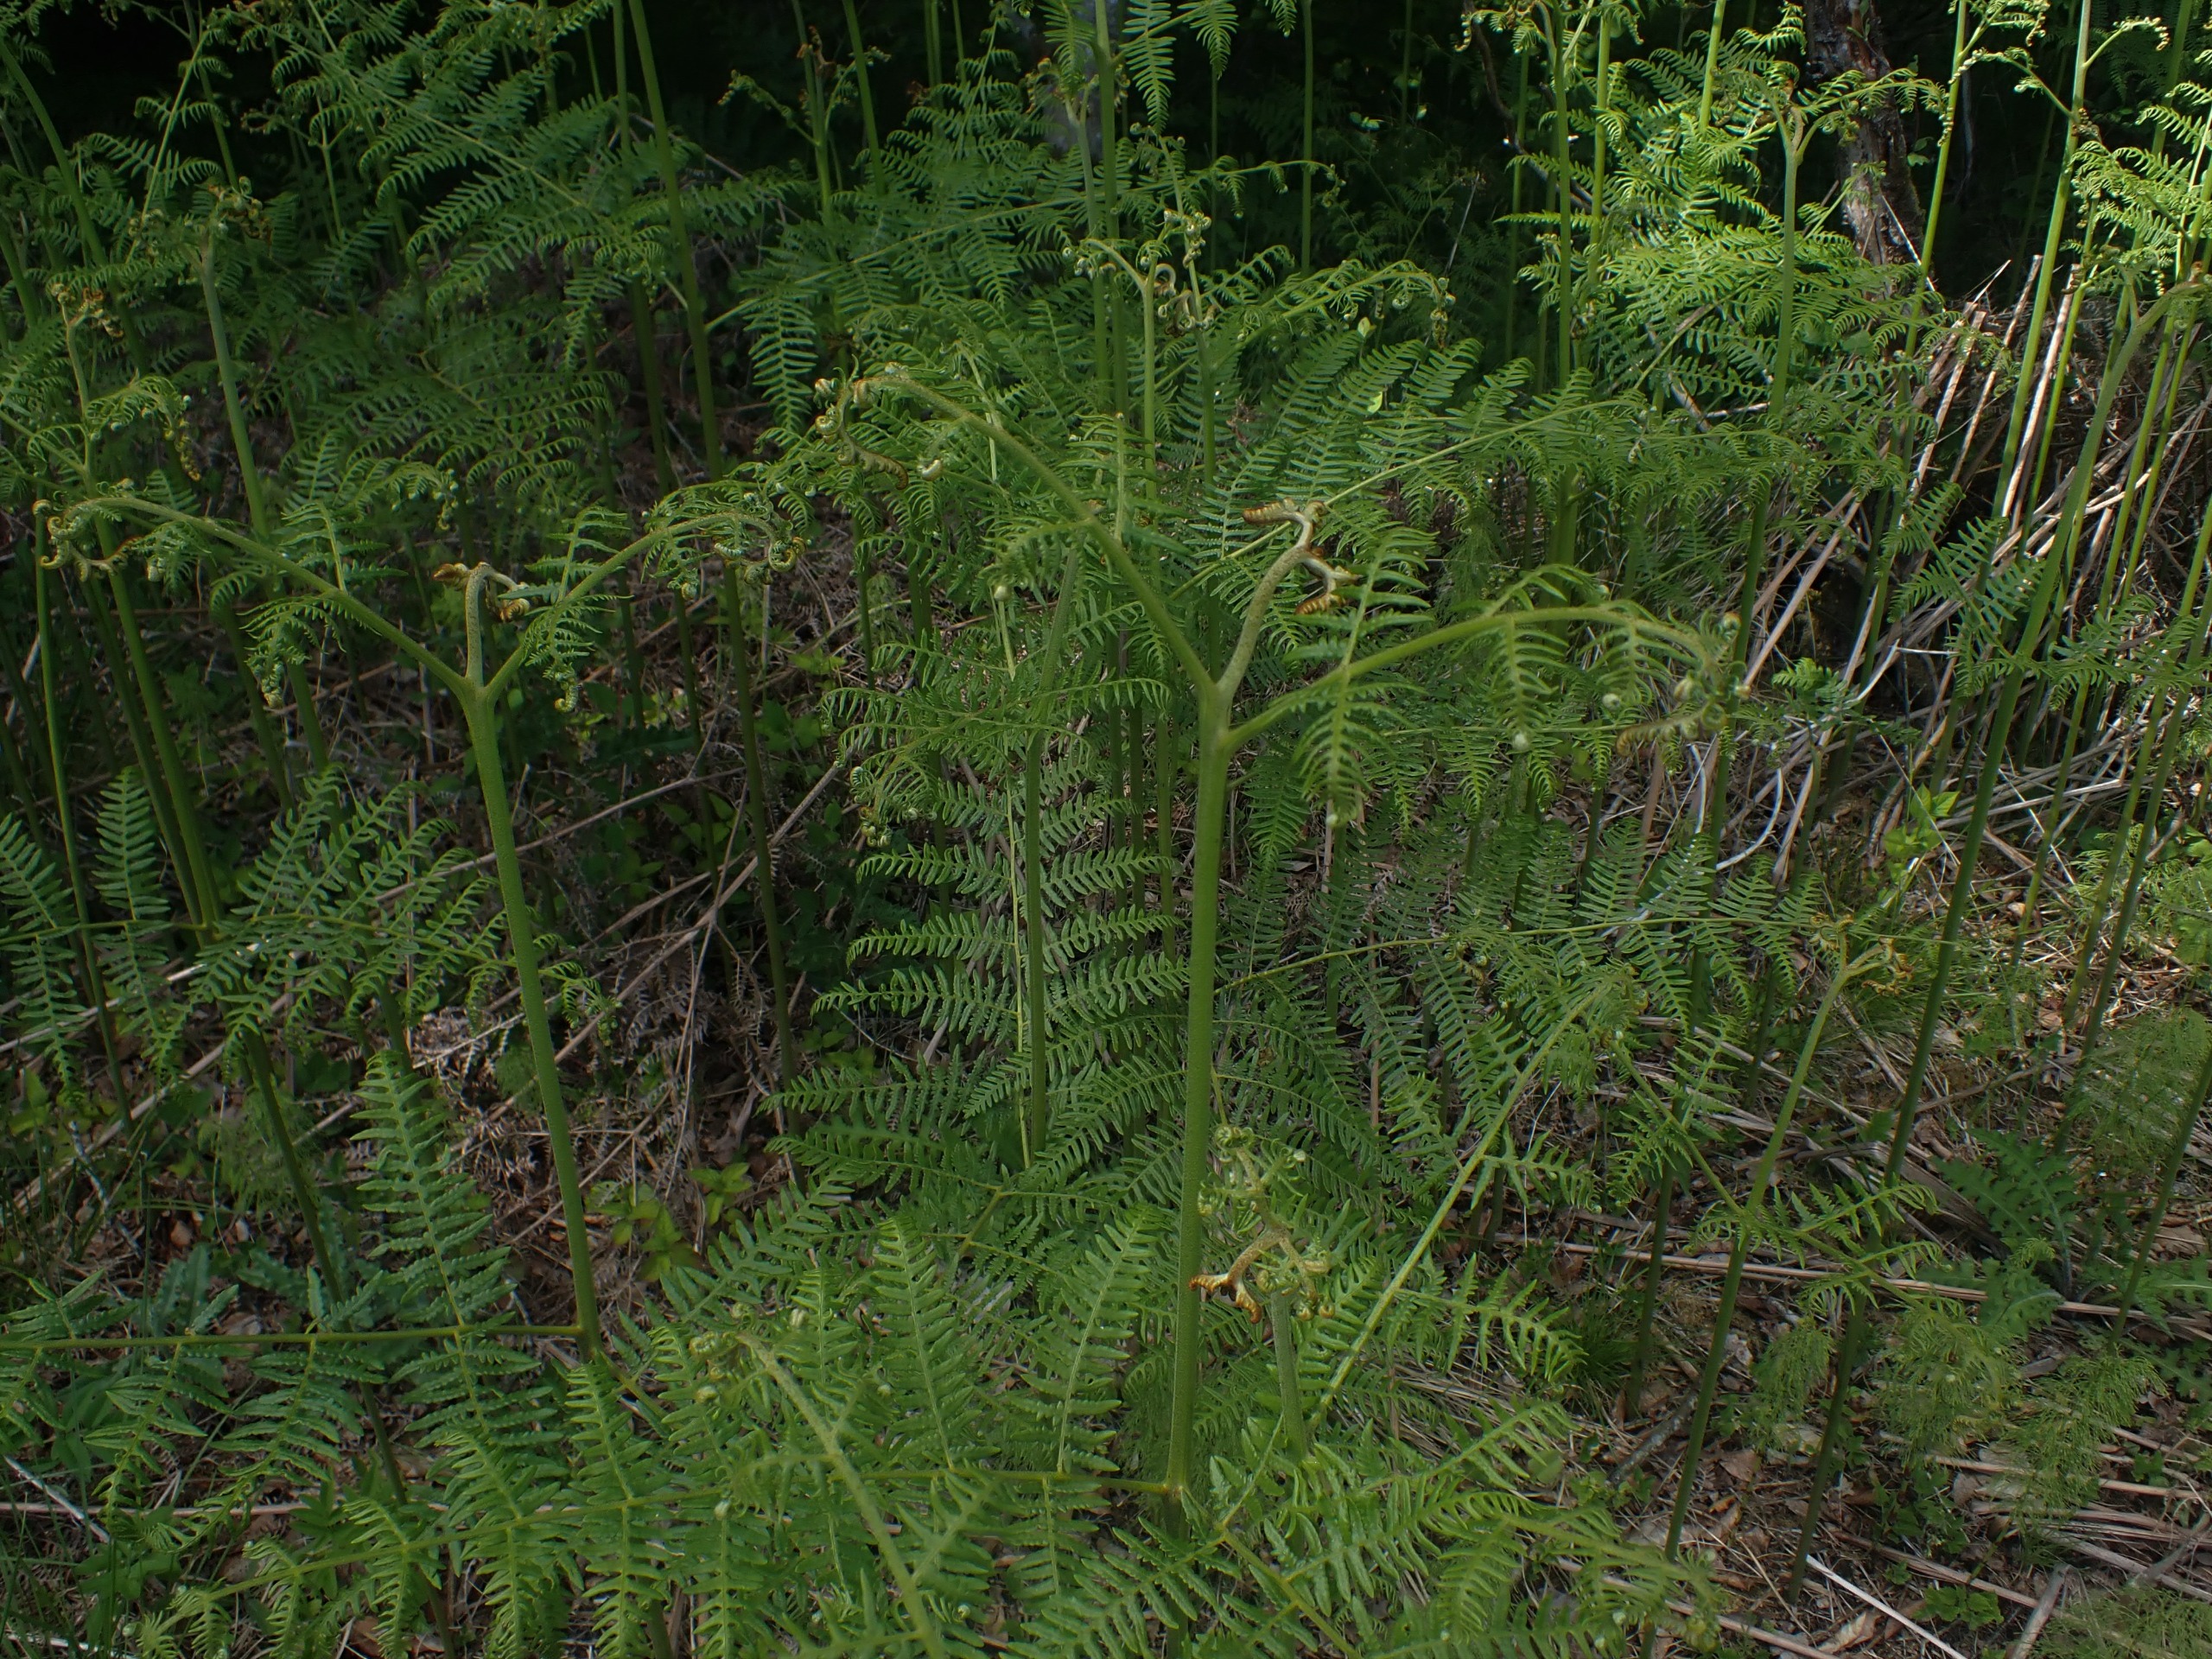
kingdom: Plantae
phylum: Tracheophyta
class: Polypodiopsida
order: Polypodiales
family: Dennstaedtiaceae
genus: Pteridium
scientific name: Pteridium aquilinum
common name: Ørnebregne
